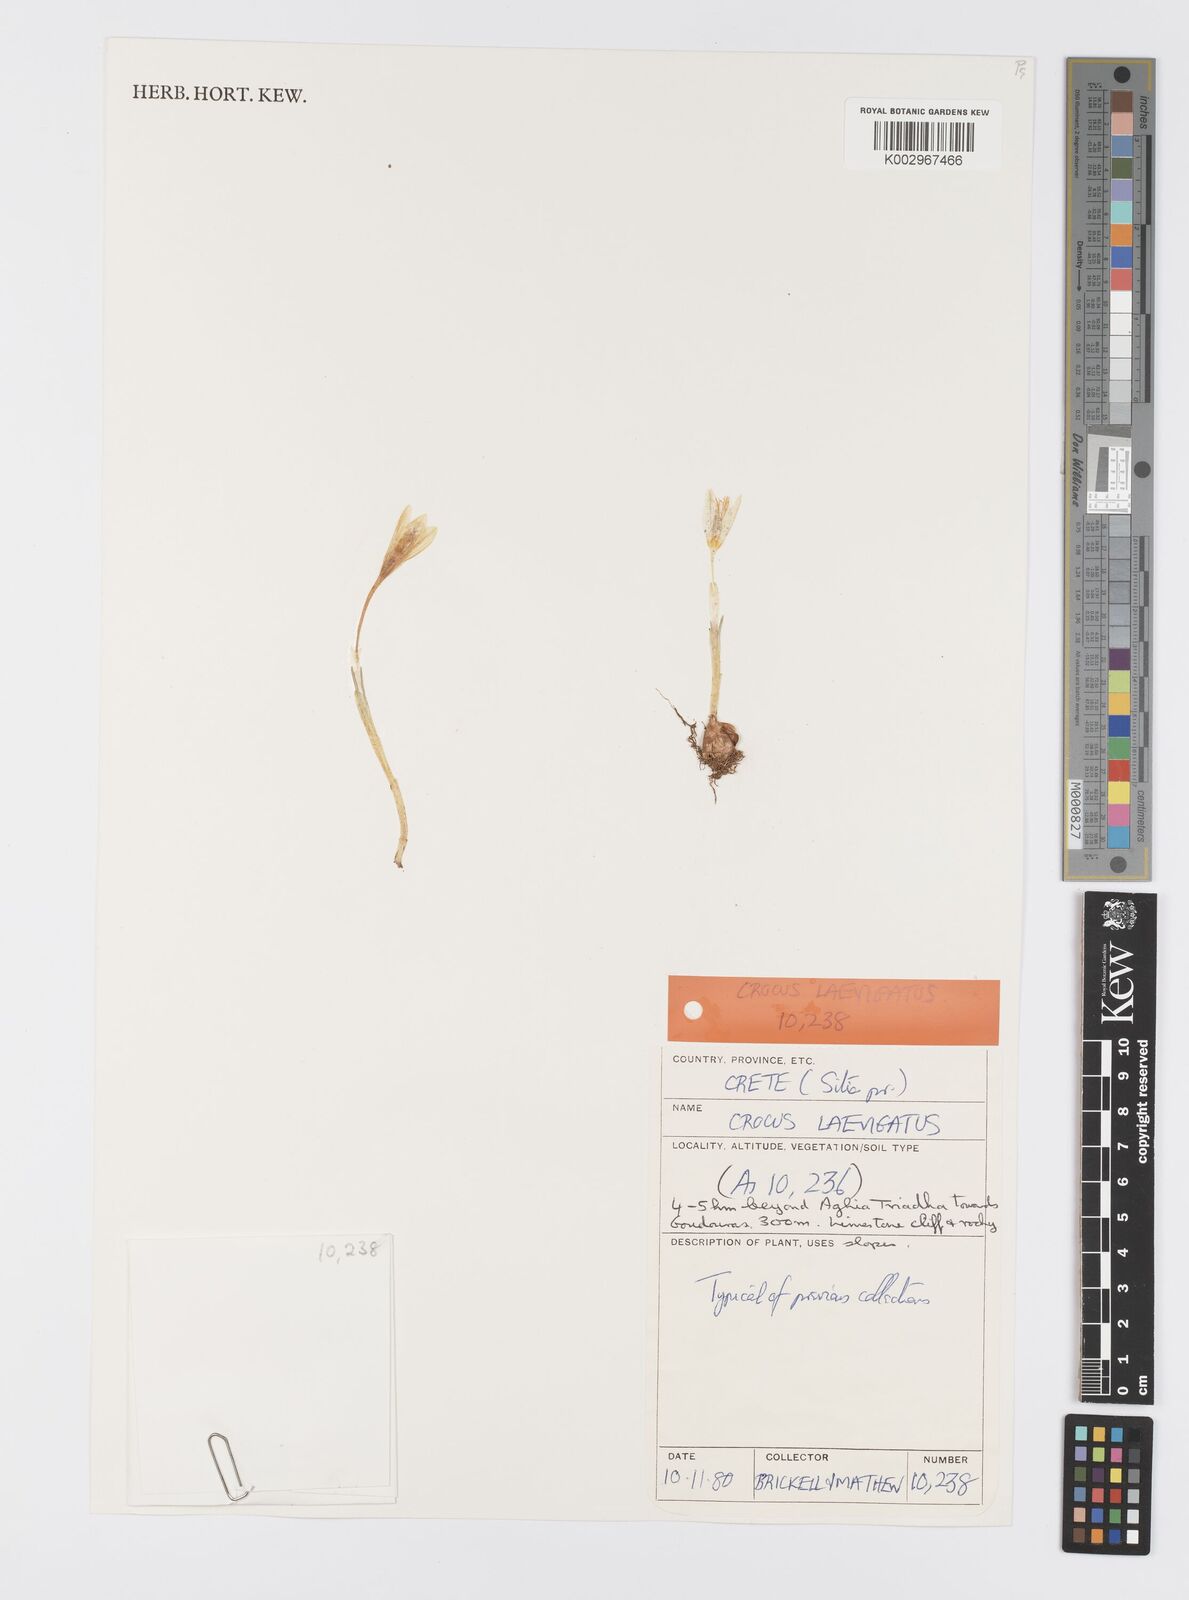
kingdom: Plantae
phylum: Tracheophyta
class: Liliopsida
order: Asparagales
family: Iridaceae
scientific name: Iridaceae
